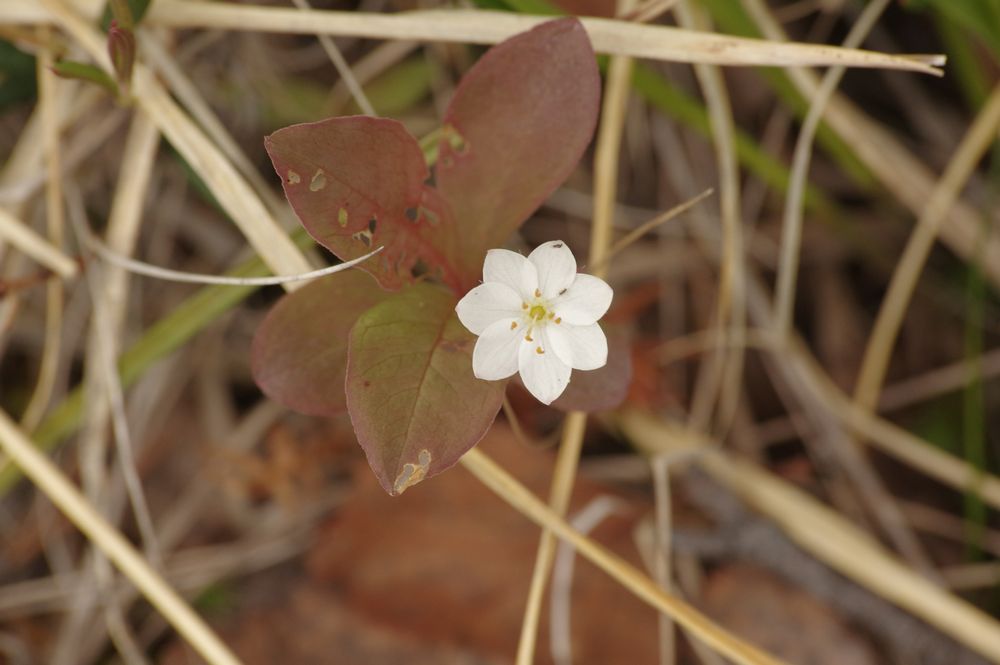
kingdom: Plantae
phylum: Tracheophyta
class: Magnoliopsida
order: Ericales
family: Primulaceae
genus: Lysimachia
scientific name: Lysimachia europaea
